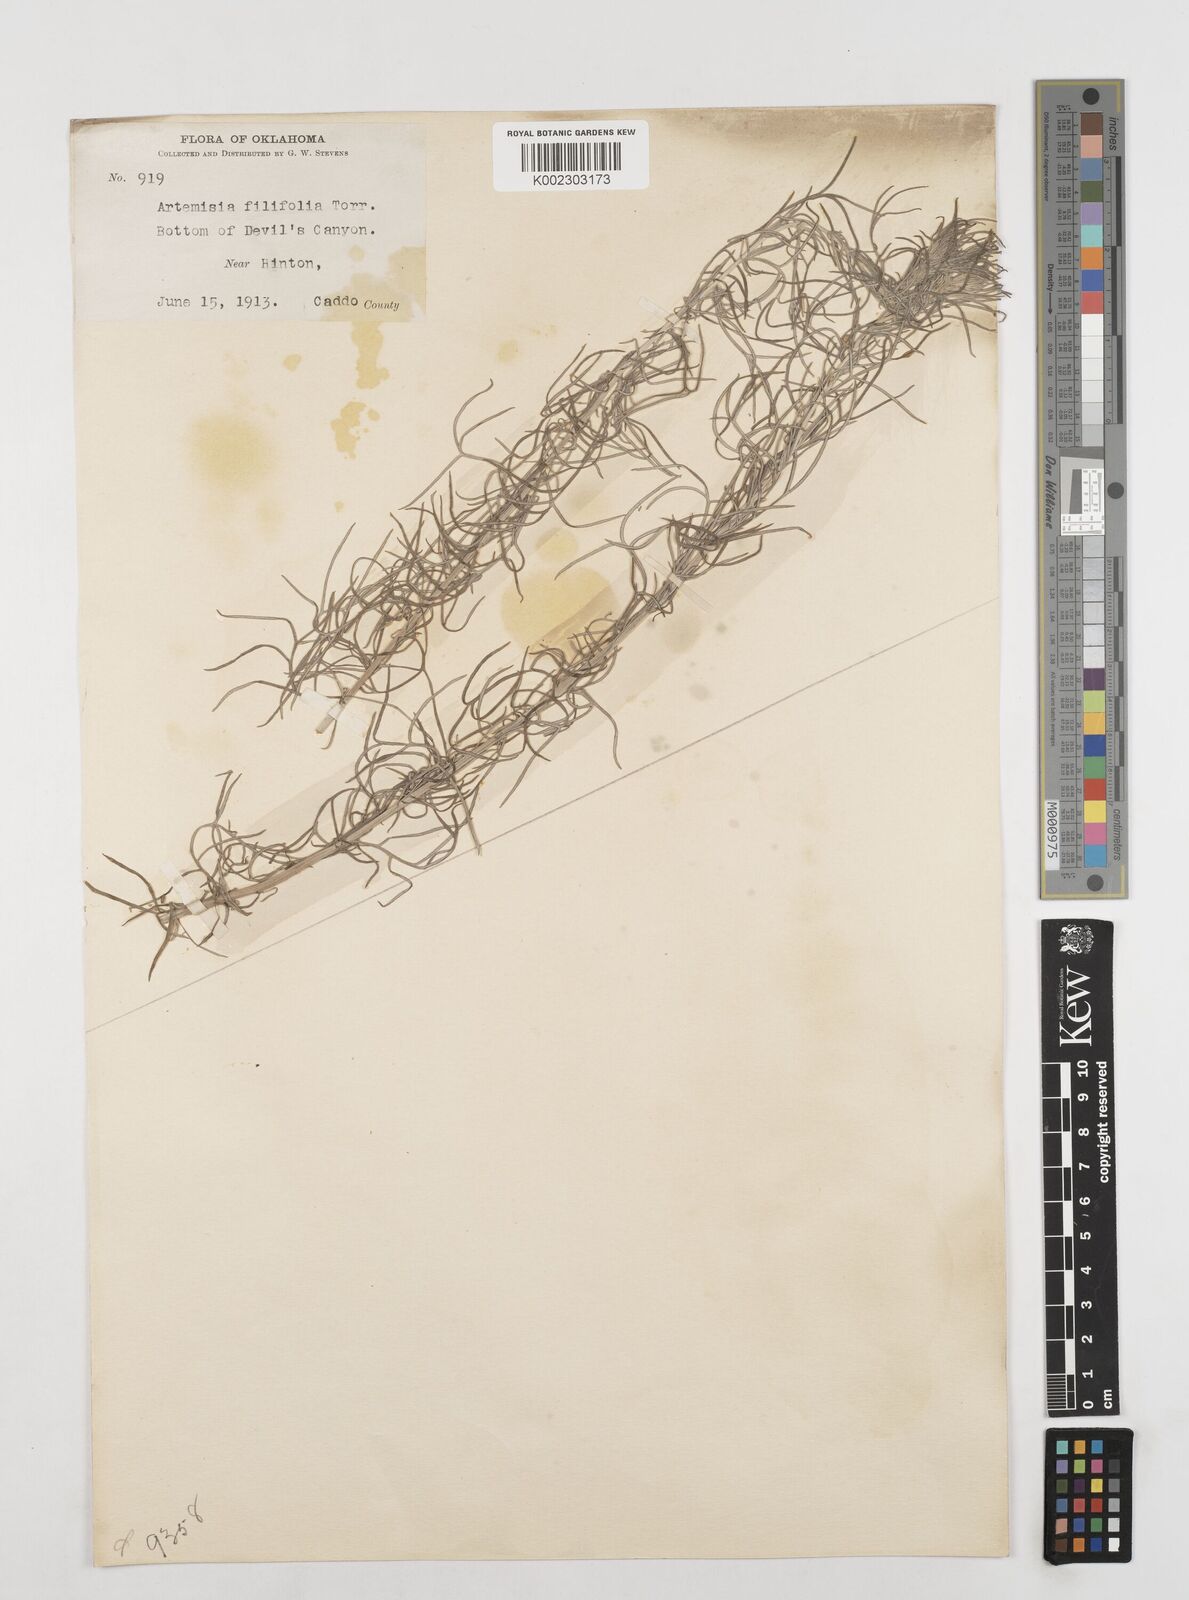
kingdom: Plantae
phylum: Tracheophyta
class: Magnoliopsida
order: Asterales
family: Asteraceae
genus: Artemisia
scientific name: Artemisia filifolia
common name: Sand-sage
